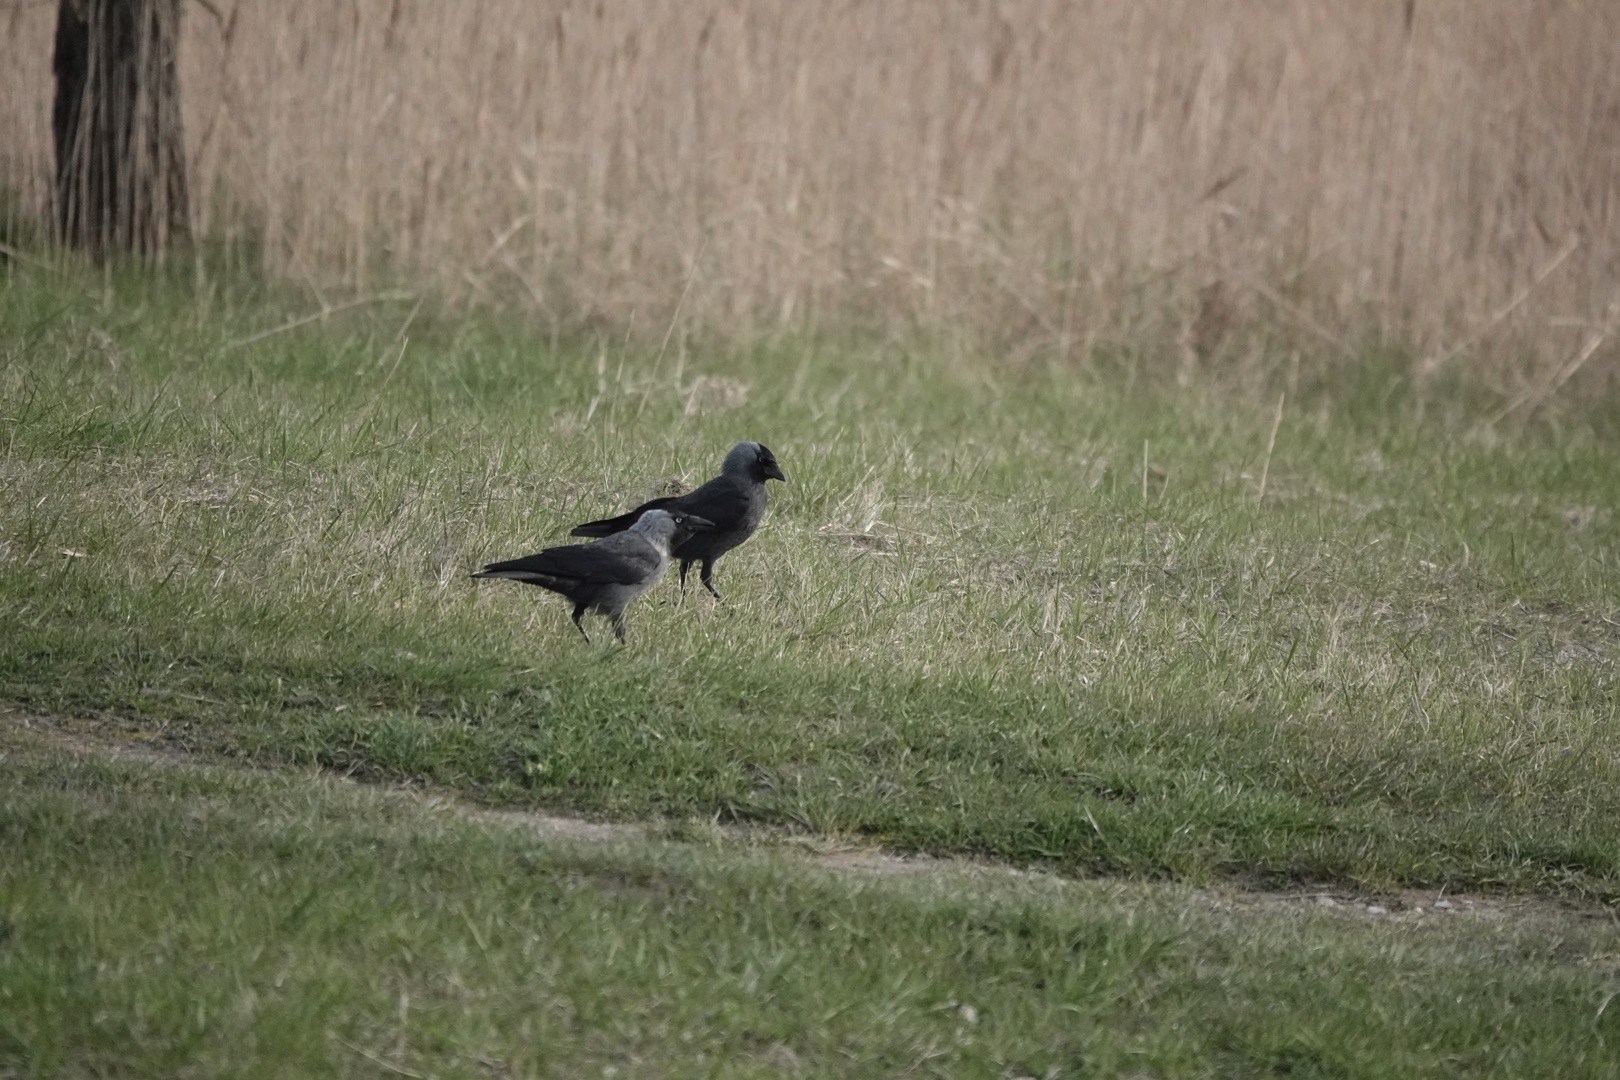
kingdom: Animalia
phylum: Chordata
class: Aves
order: Passeriformes
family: Corvidae
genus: Coloeus
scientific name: Coloeus monedula
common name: Allike
